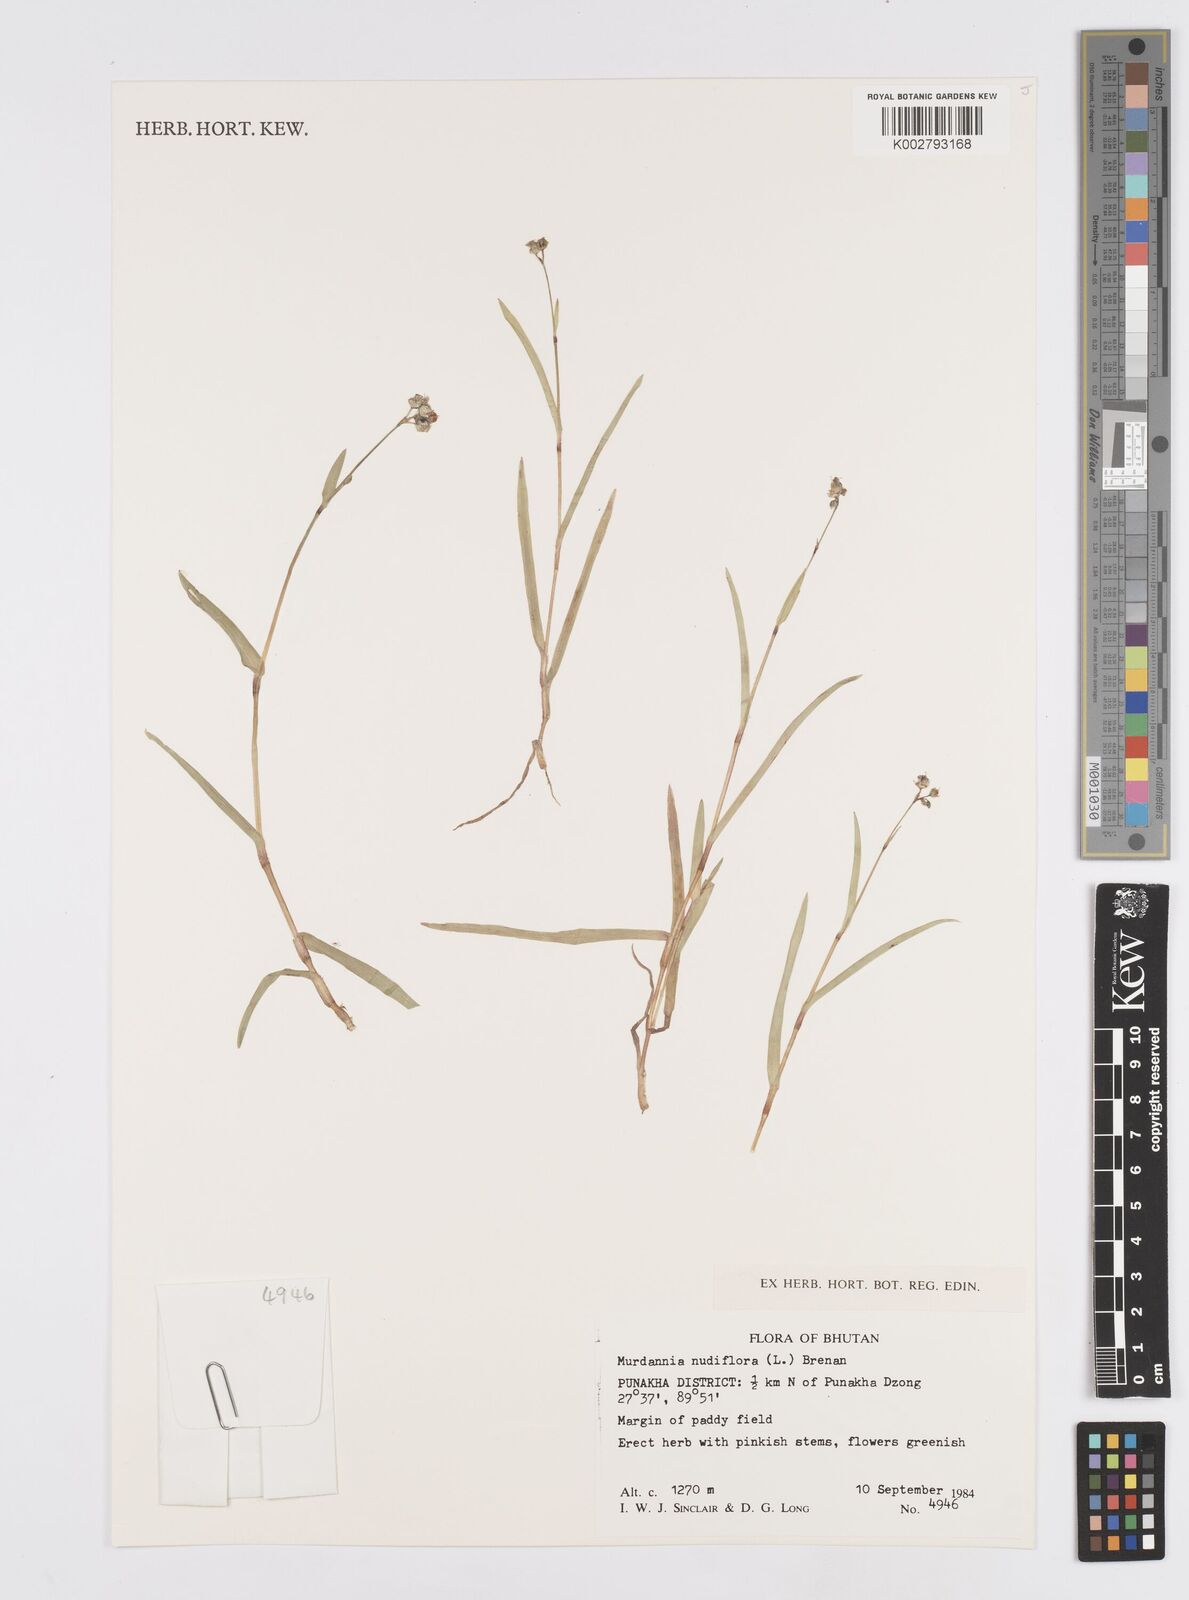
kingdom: Plantae
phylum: Tracheophyta
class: Liliopsida
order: Commelinales
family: Commelinaceae
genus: Murdannia
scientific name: Murdannia nudiflora
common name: Nakedstem dewflower
